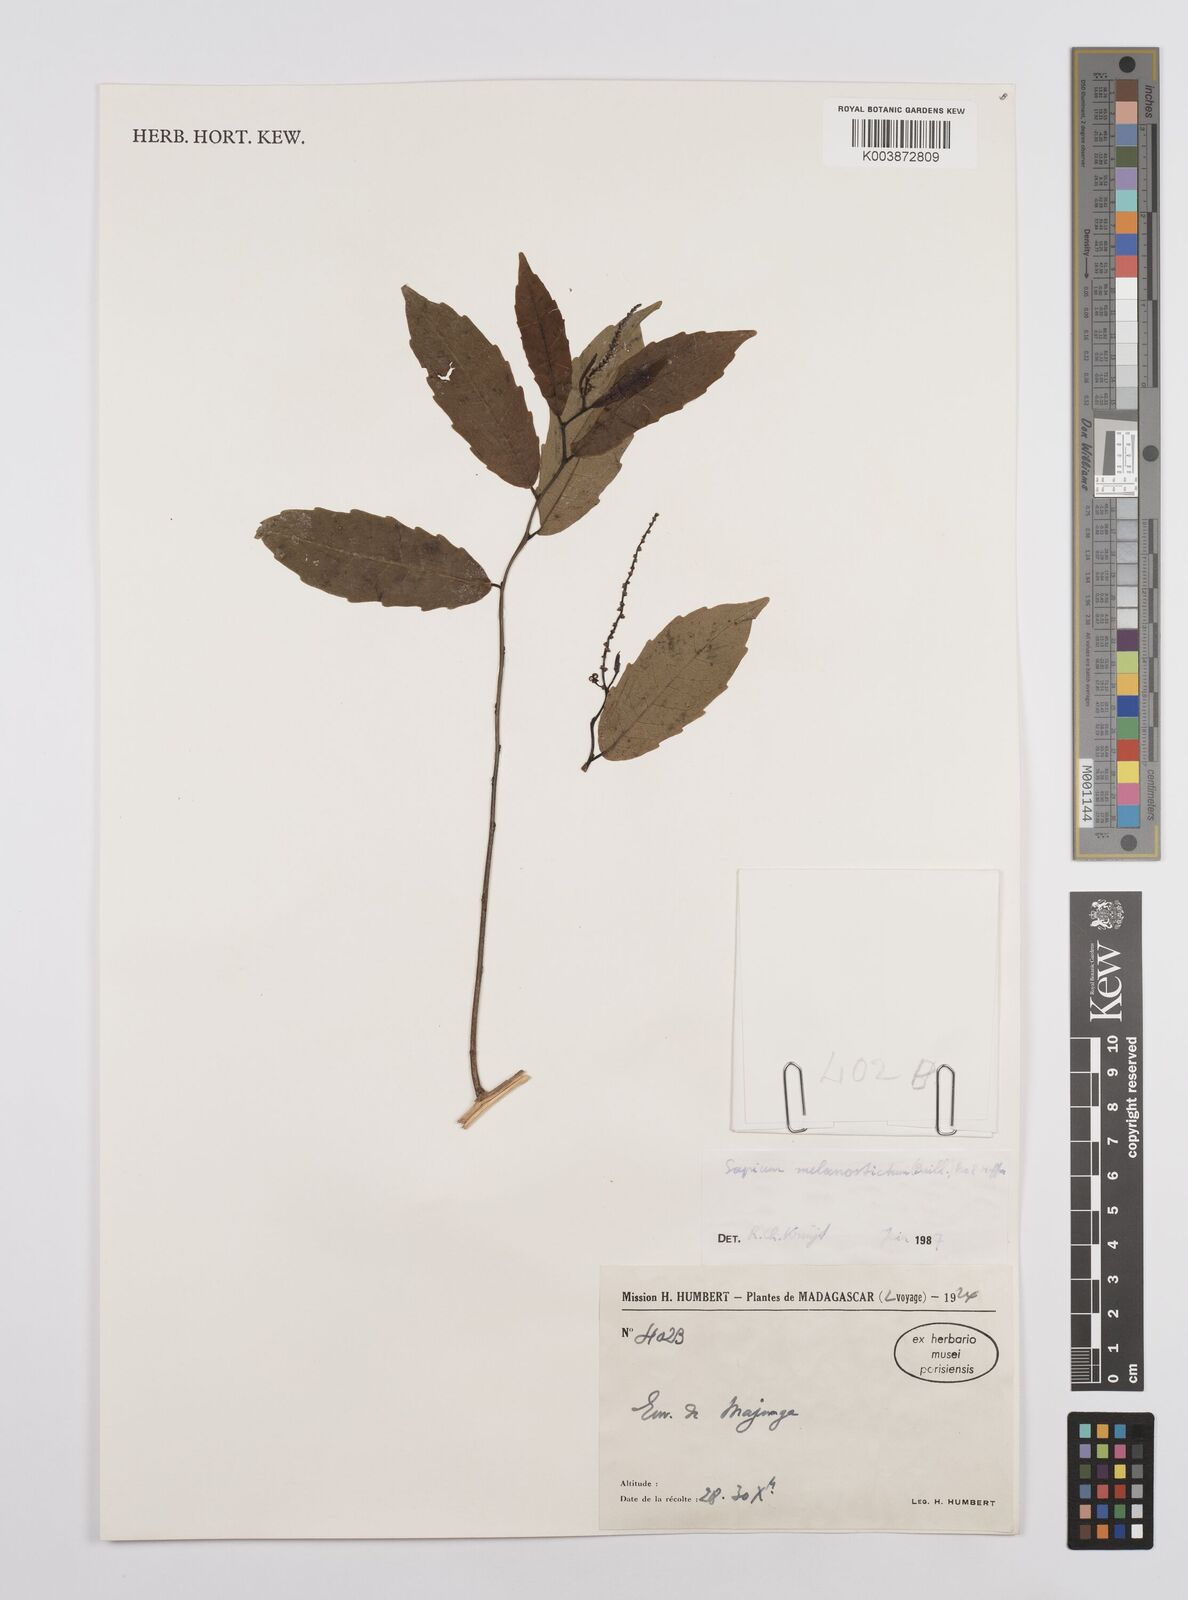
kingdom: Plantae
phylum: Tracheophyta
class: Magnoliopsida
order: Malpighiales
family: Euphorbiaceae
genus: Sclerocroton
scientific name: Sclerocroton melanostictus
